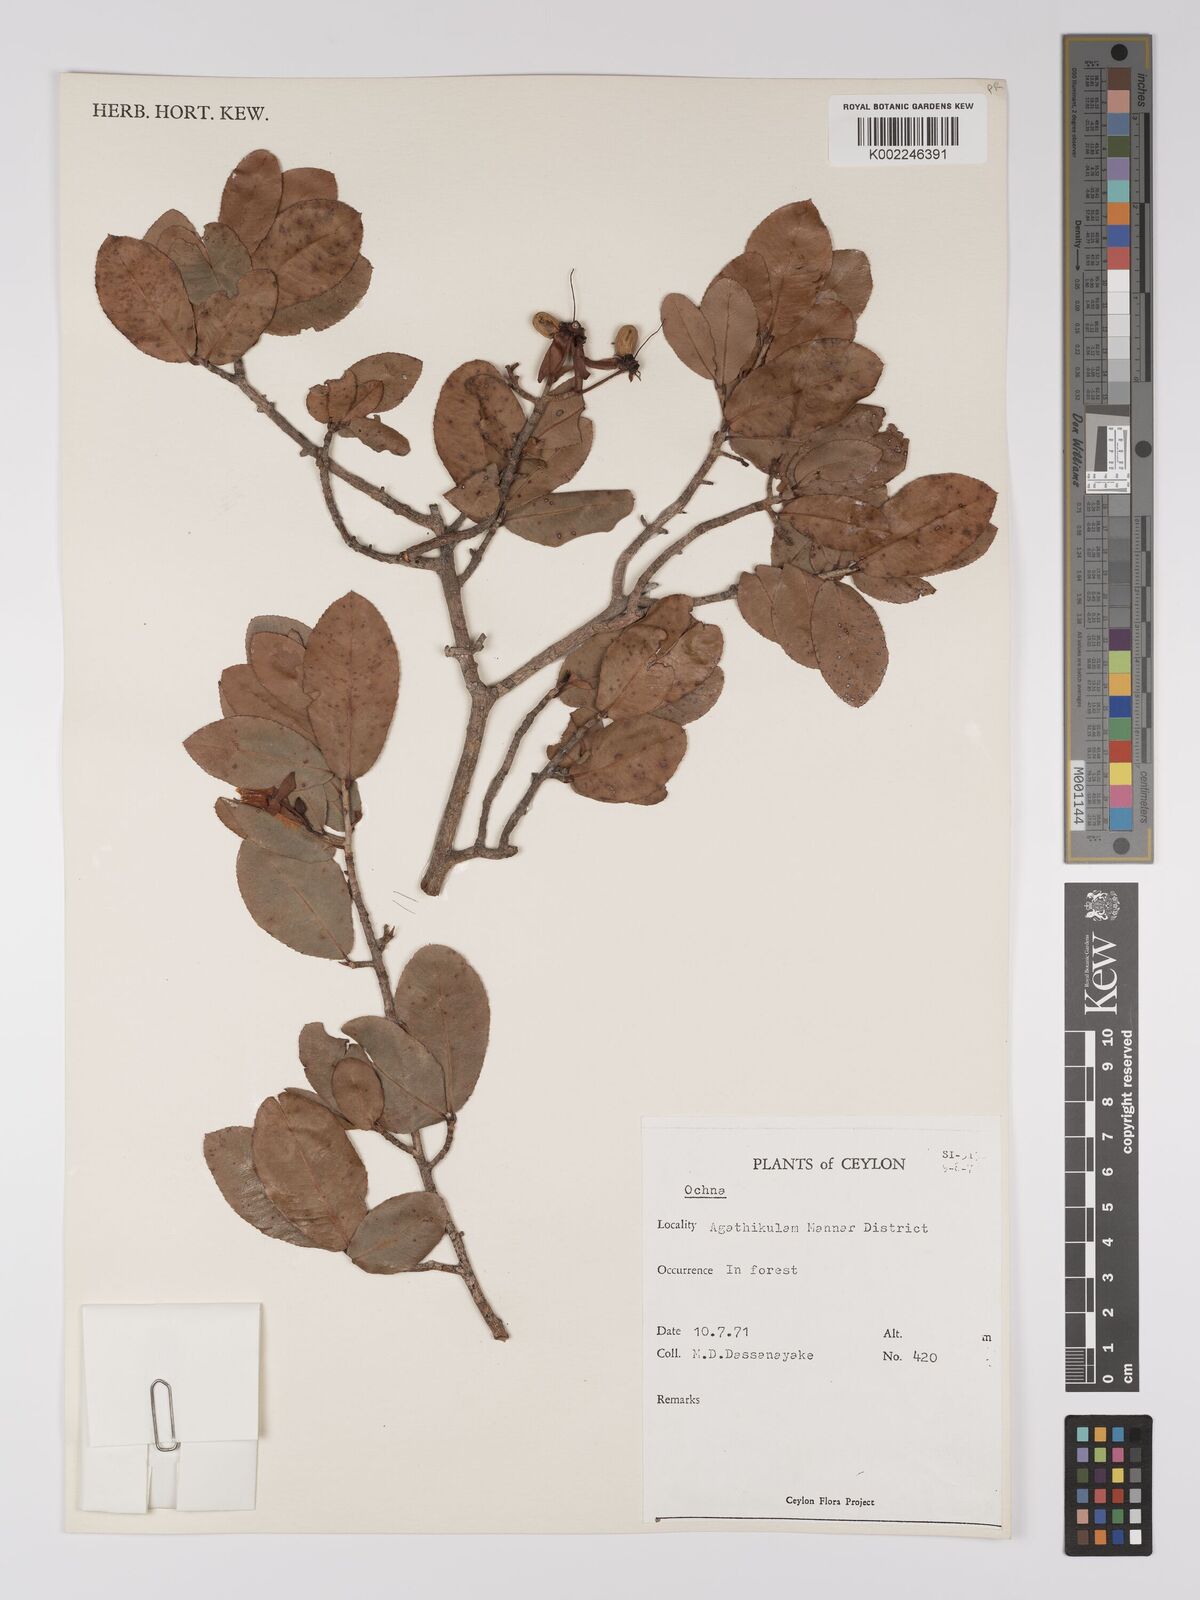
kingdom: Plantae
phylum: Tracheophyta
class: Magnoliopsida
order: Malpighiales
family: Ochnaceae
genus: Ochna
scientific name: Ochna
